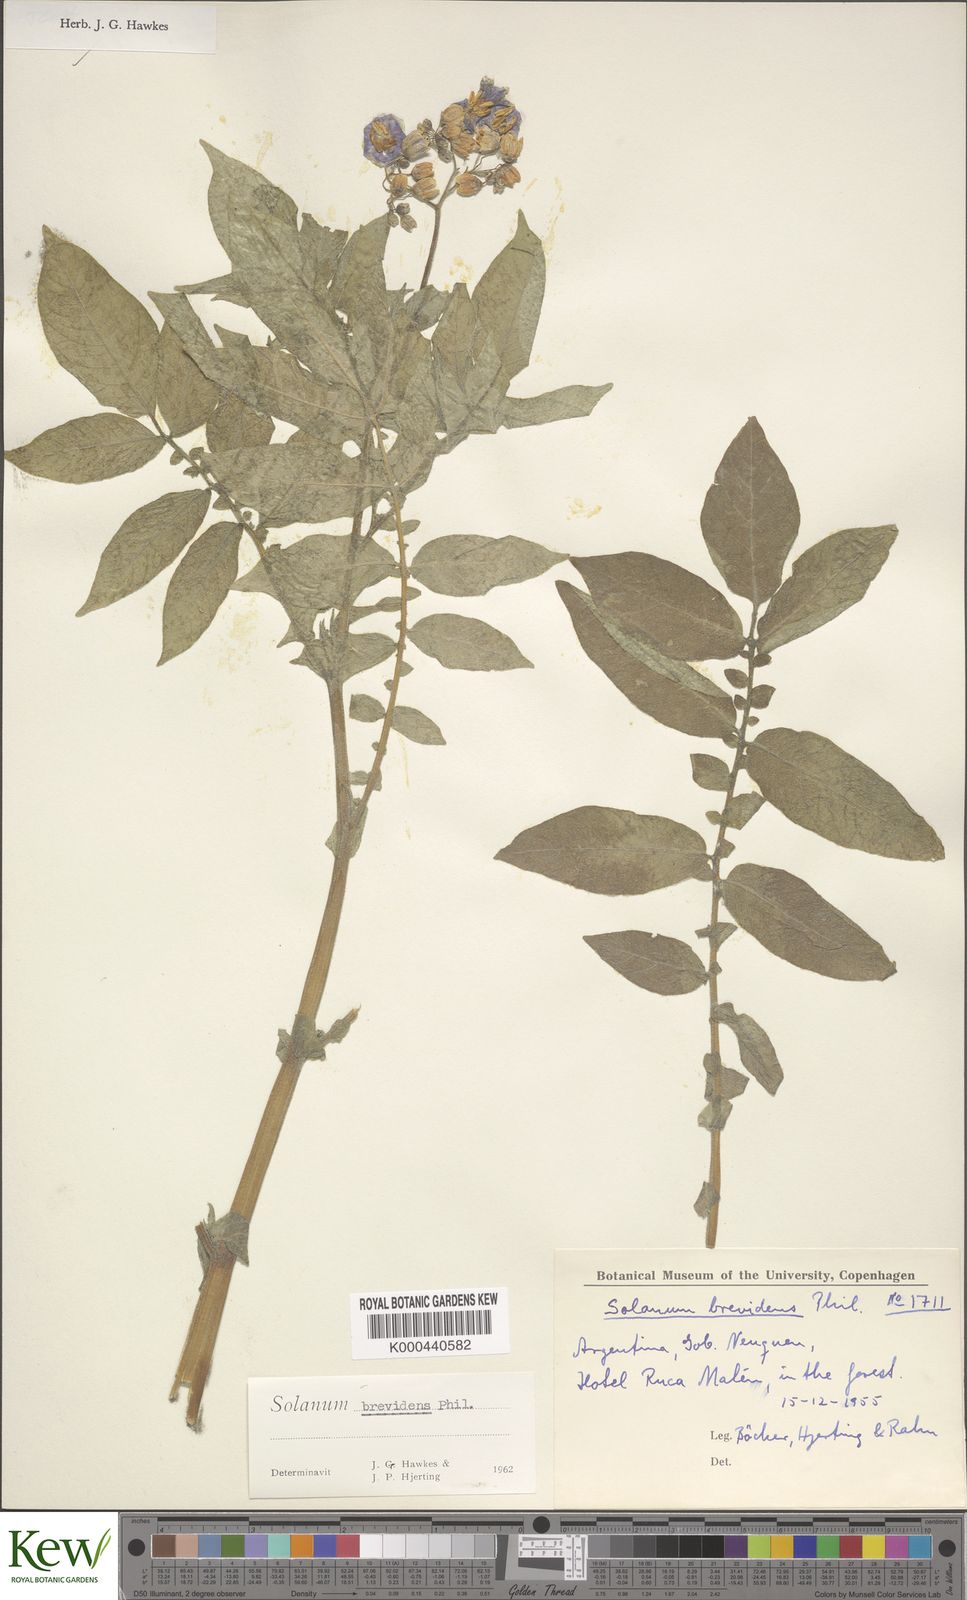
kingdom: Plantae
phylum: Tracheophyta
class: Magnoliopsida
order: Solanales
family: Solanaceae
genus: Solanum
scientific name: Solanum palustre
